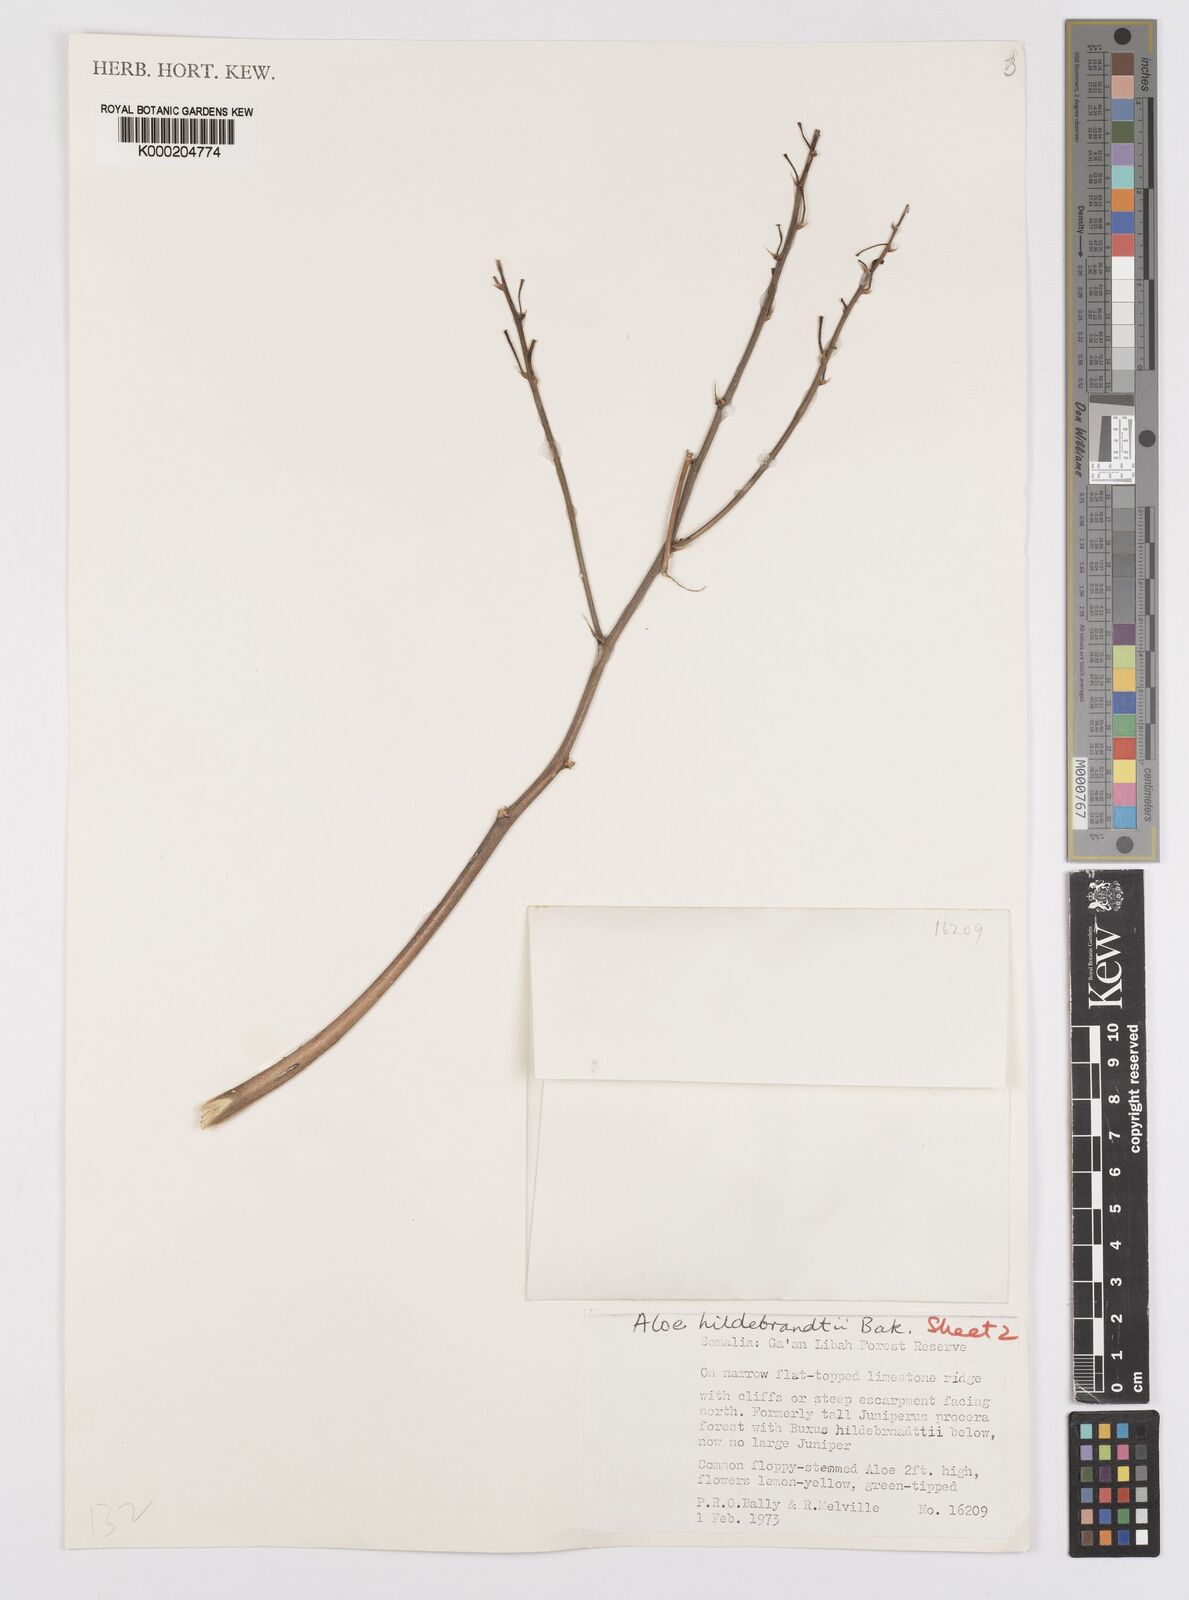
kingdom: Plantae
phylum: Tracheophyta
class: Liliopsida
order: Asparagales
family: Asphodelaceae
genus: Aloe
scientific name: Aloe hildebrandtii
